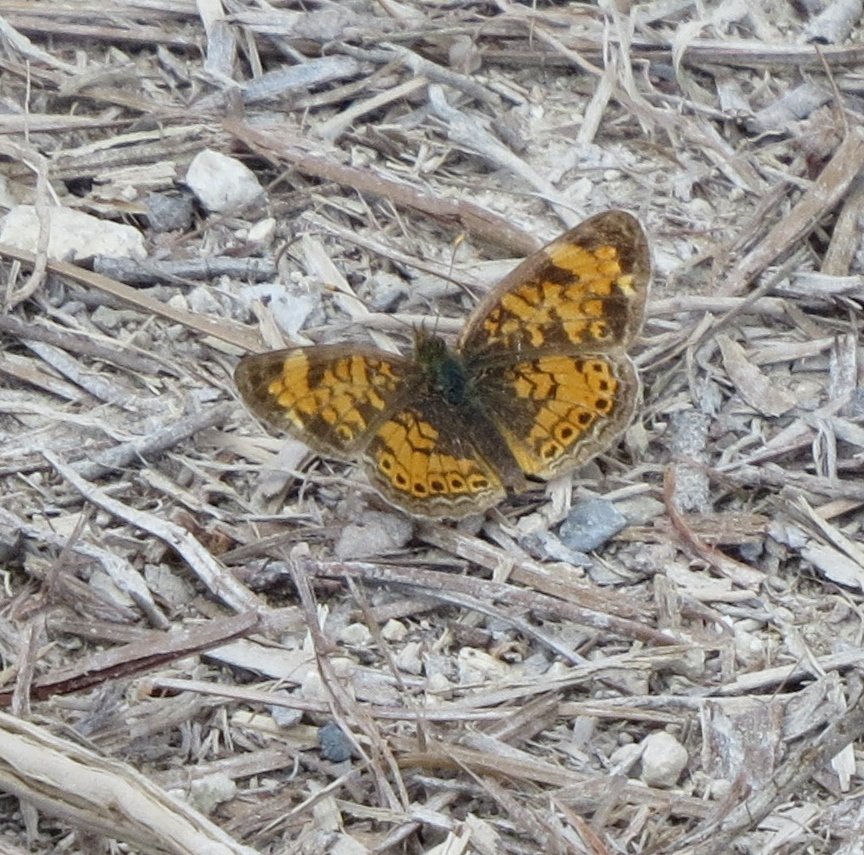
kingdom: Animalia
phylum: Arthropoda
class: Insecta
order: Lepidoptera
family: Nymphalidae
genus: Phyciodes
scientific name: Phyciodes tharos
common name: Pearl Crescent
